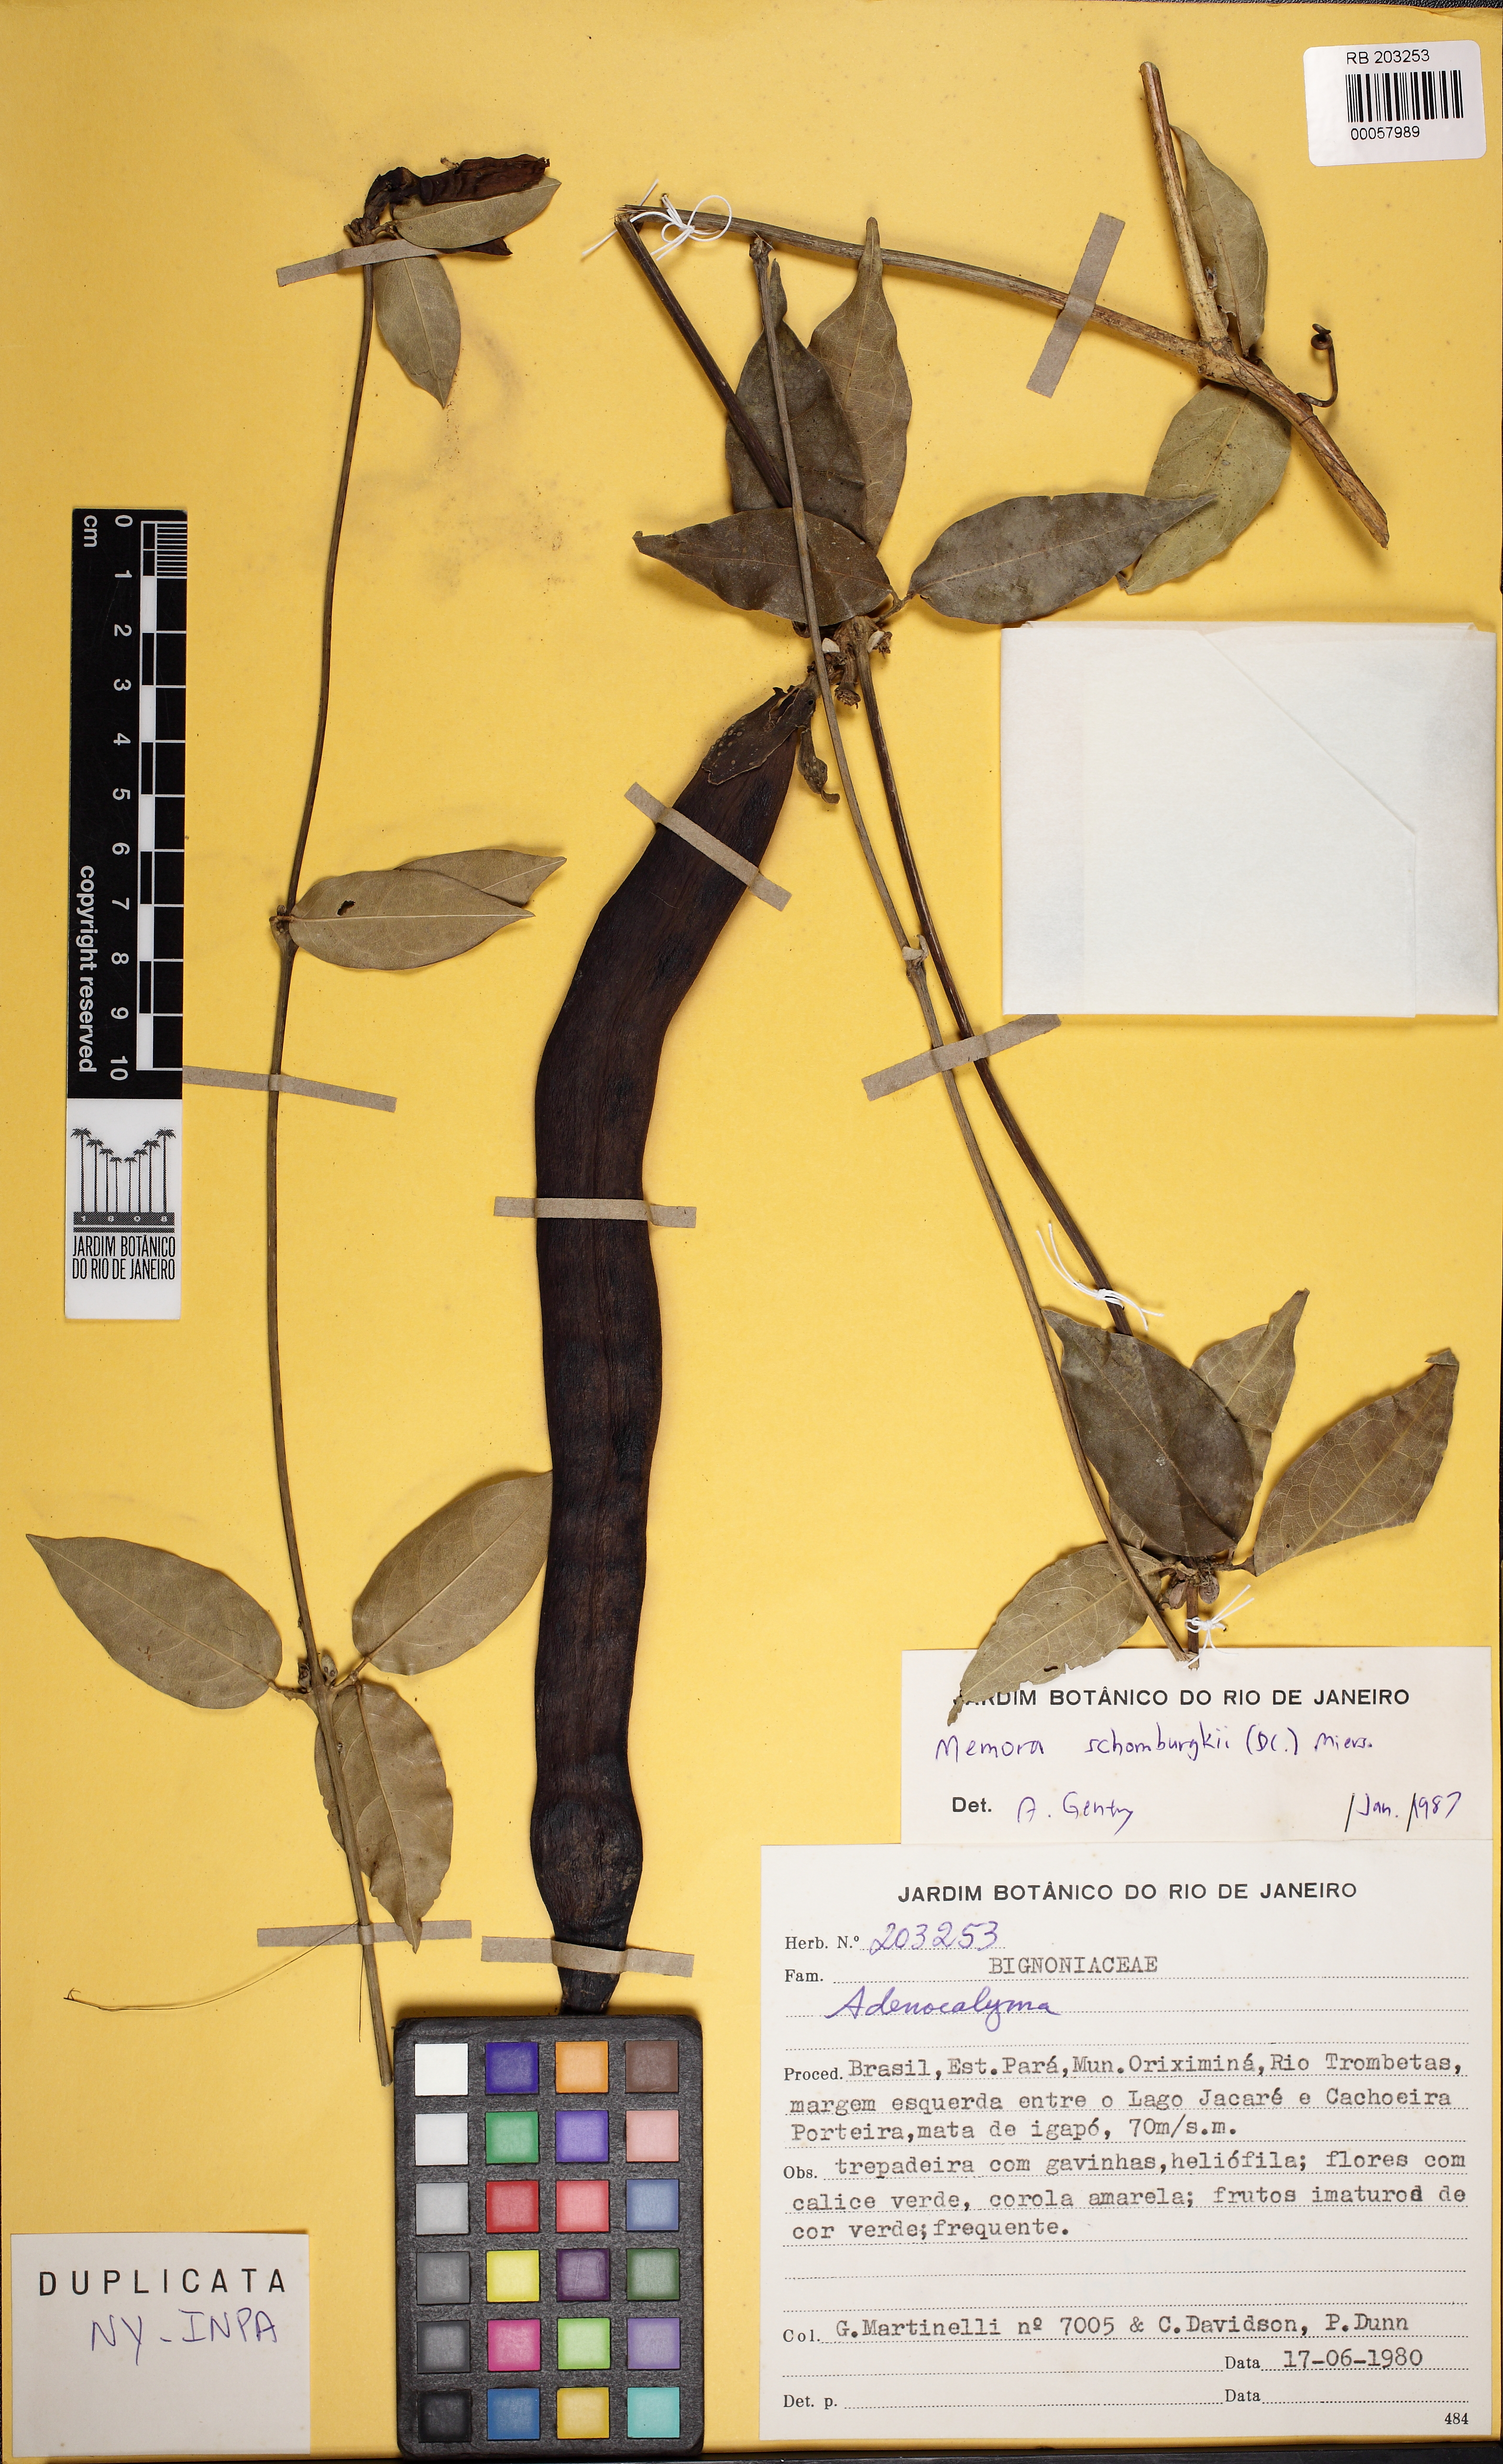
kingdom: Plantae
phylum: Tracheophyta
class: Magnoliopsida
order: Lamiales
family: Bignoniaceae
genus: Adenocalymma
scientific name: Adenocalymma schomburgkii
